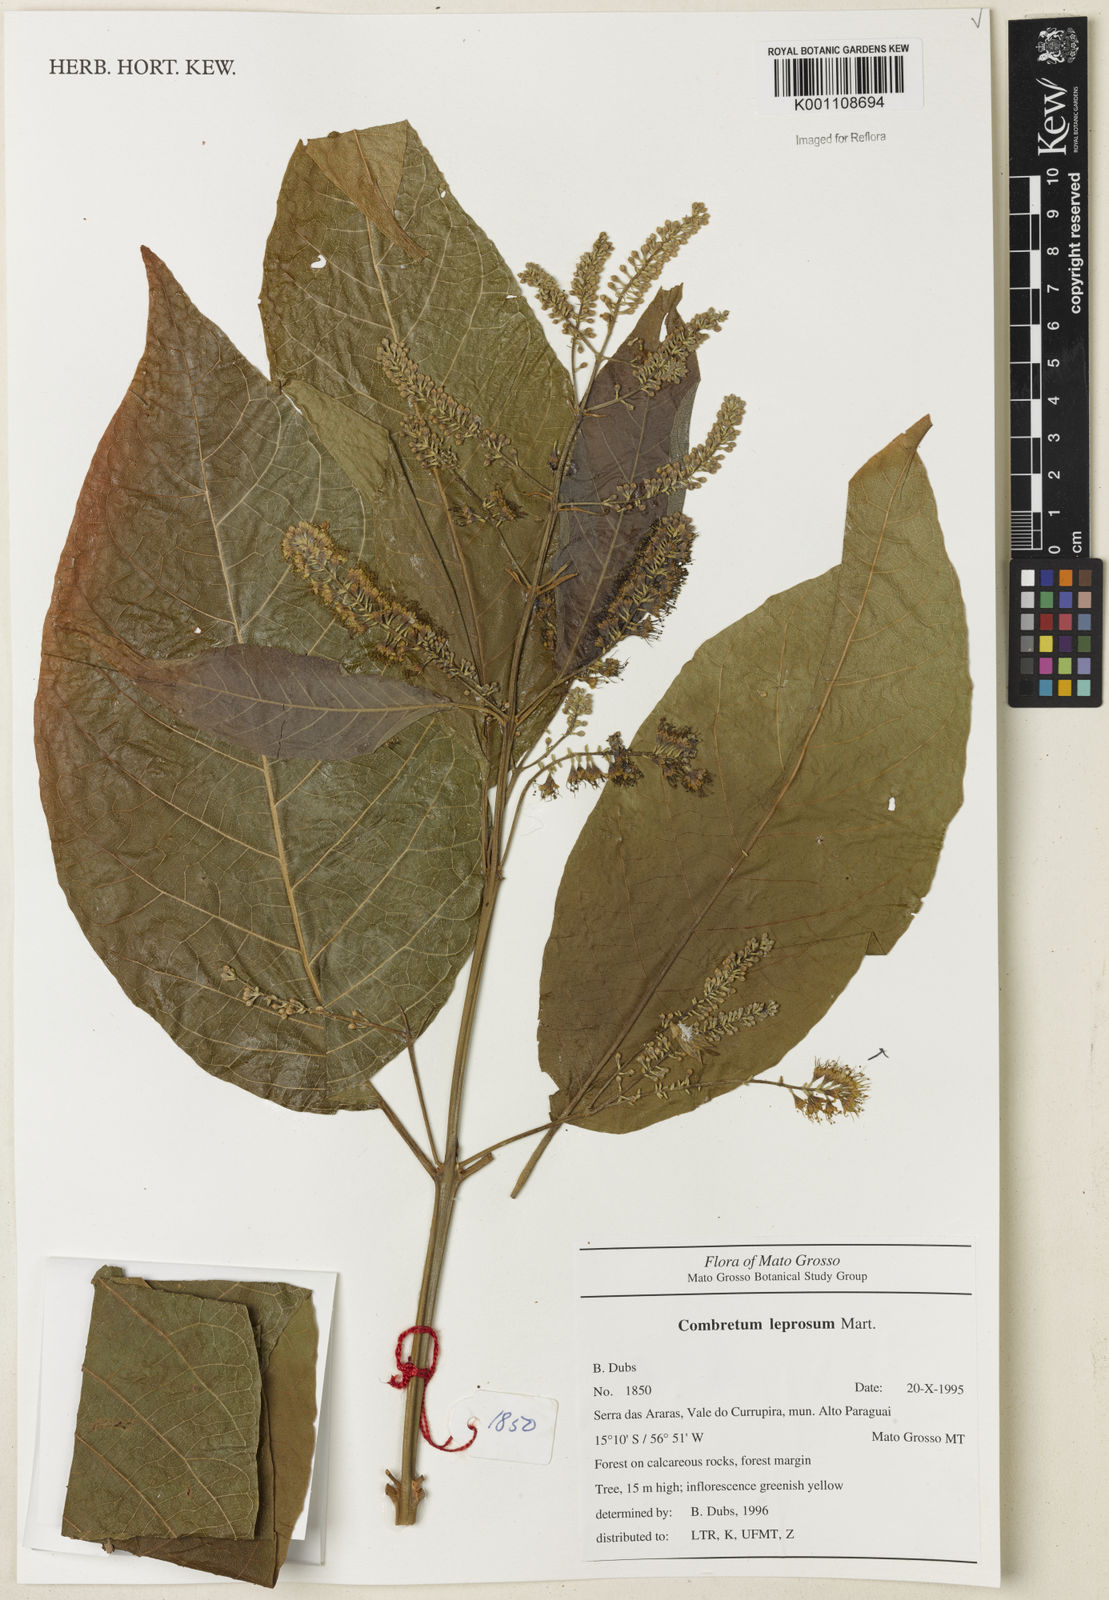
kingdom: Plantae
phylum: Tracheophyta
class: Magnoliopsida
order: Myrtales
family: Combretaceae
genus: Combretum
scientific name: Combretum leprosum
